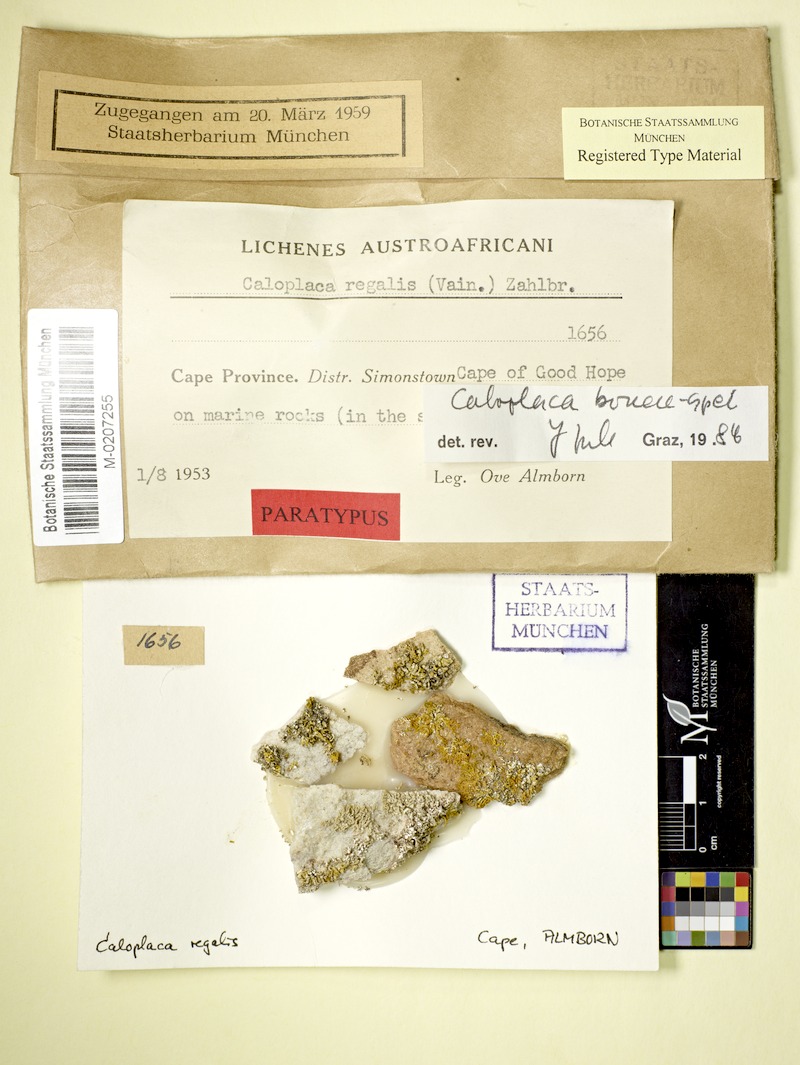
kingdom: Fungi
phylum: Ascomycota
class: Lecanoromycetes
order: Teloschistales
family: Teloschistaceae
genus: Teloschistopsis
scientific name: Teloschistopsis bonae-spei
